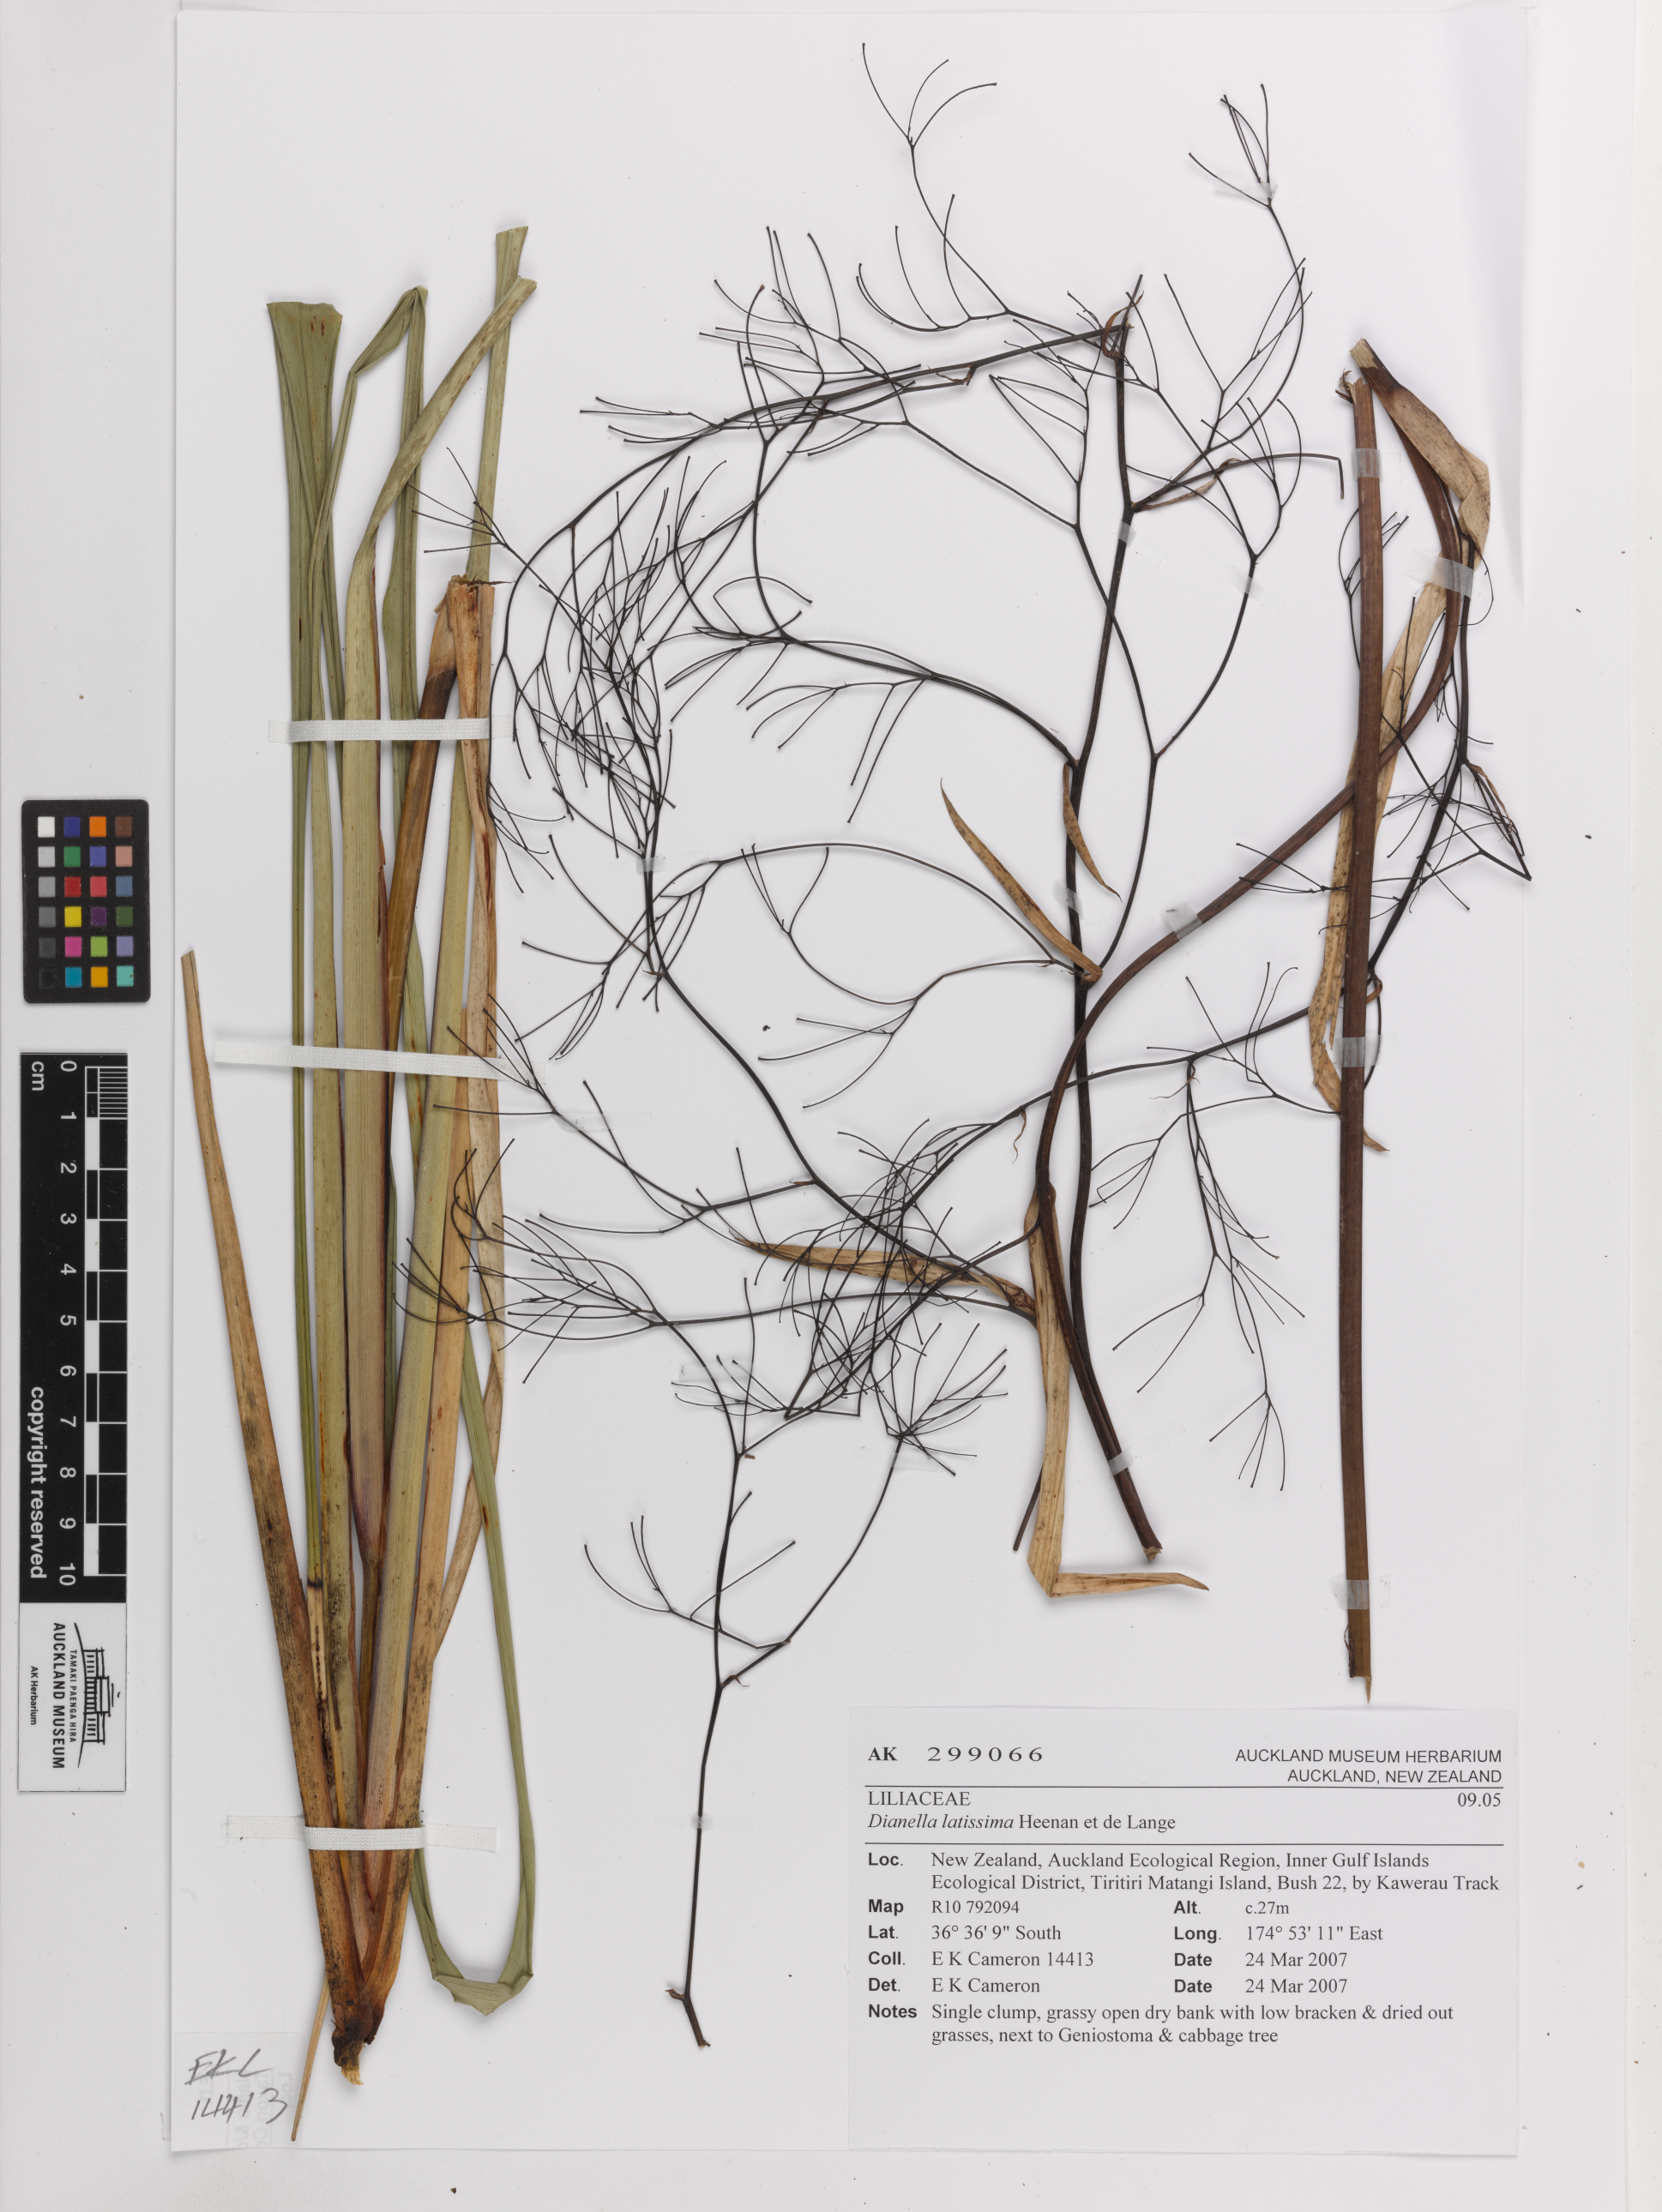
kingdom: Plantae
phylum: Tracheophyta
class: Liliopsida
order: Asparagales
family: Asphodelaceae
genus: Dianella
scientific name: Dianella latissima
